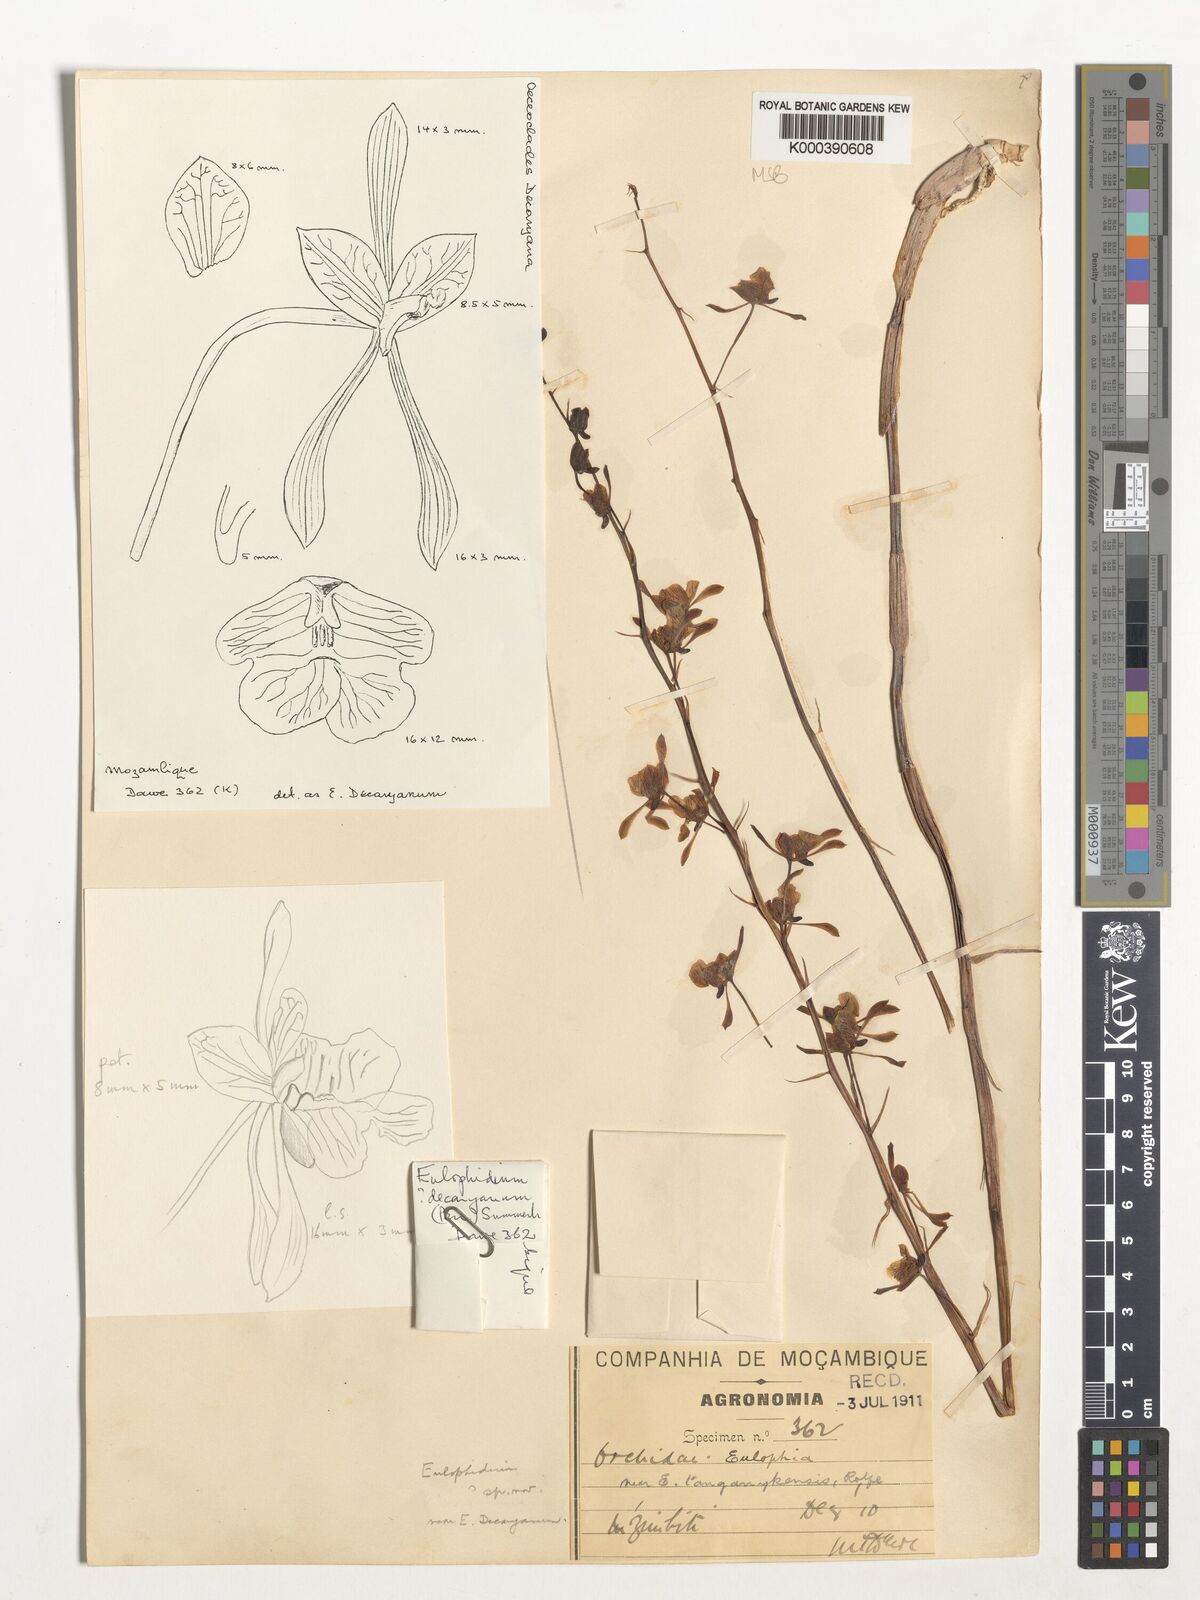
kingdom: Plantae
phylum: Tracheophyta
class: Liliopsida
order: Asparagales
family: Orchidaceae
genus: Eulophia
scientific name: Eulophia decaryana
